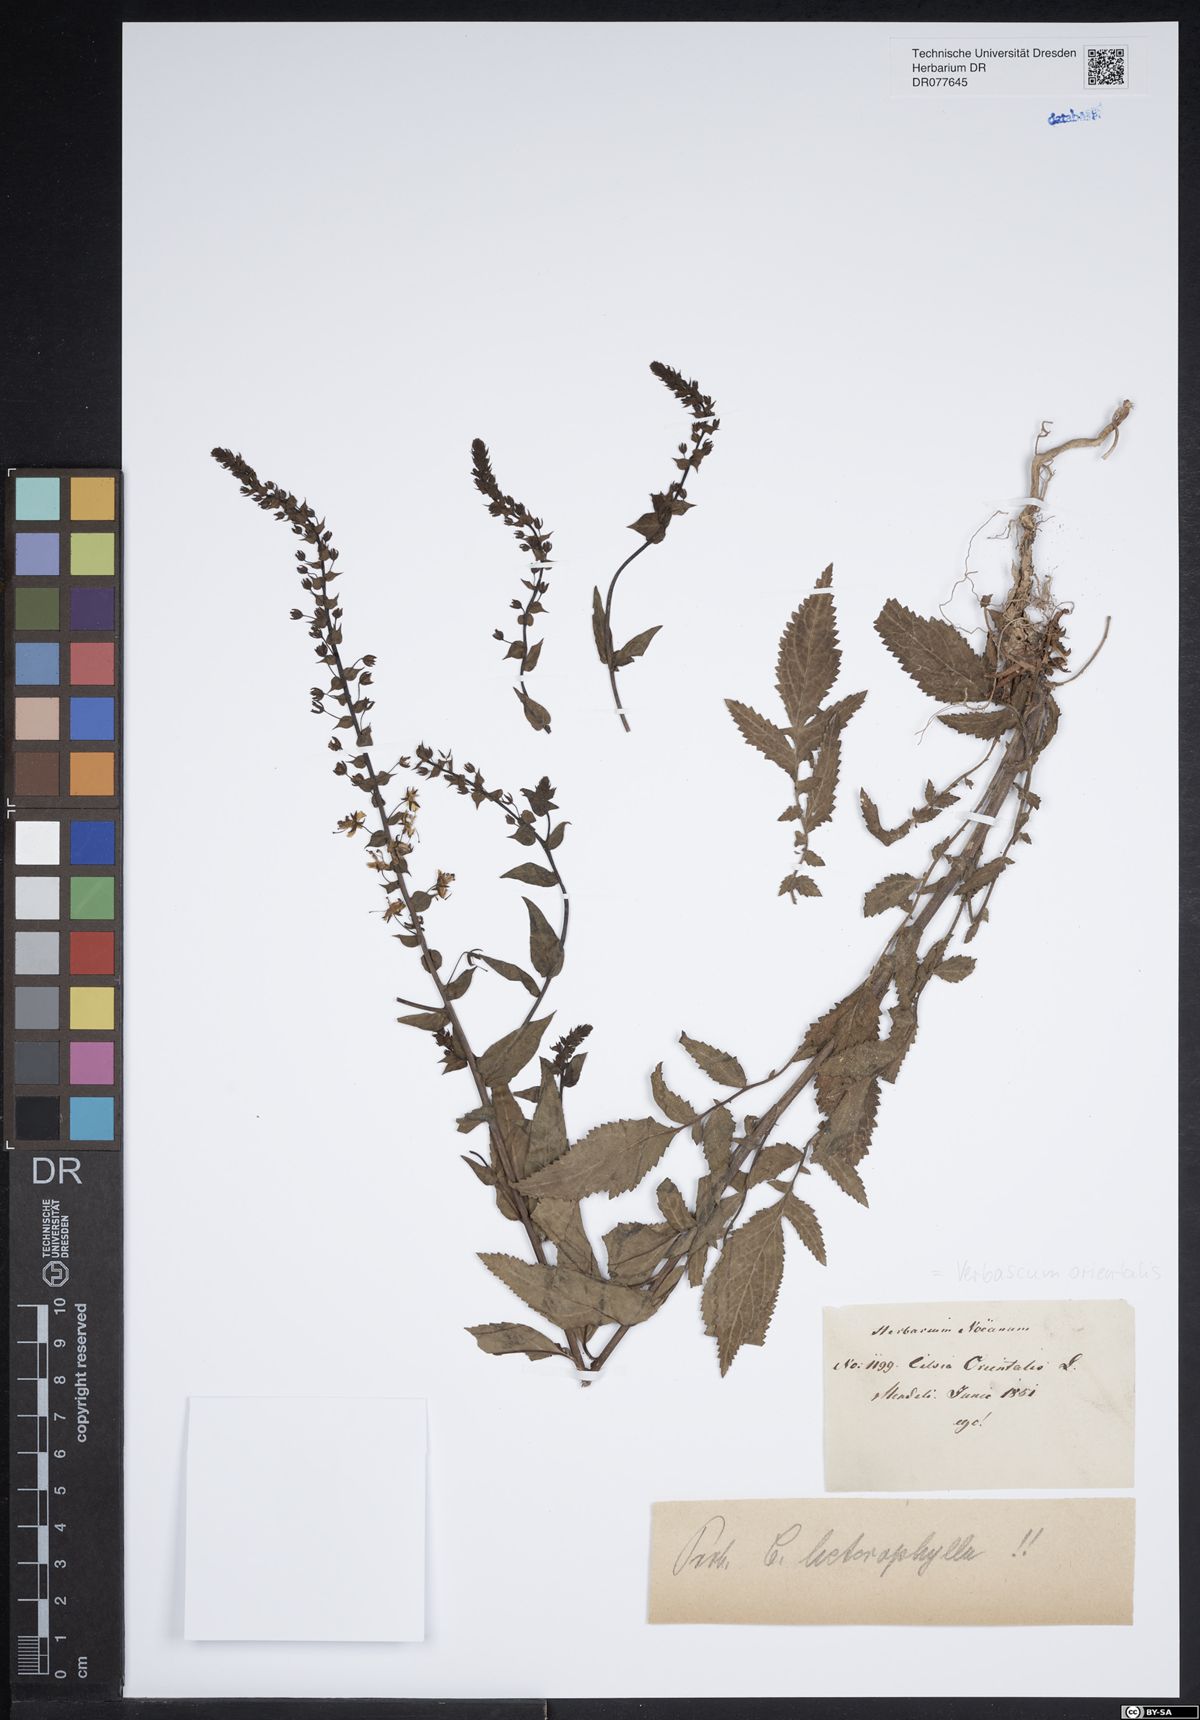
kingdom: Plantae
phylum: Tracheophyta
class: Magnoliopsida
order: Lamiales
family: Scrophulariaceae
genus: Verbascum
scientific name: Verbascum orientale
